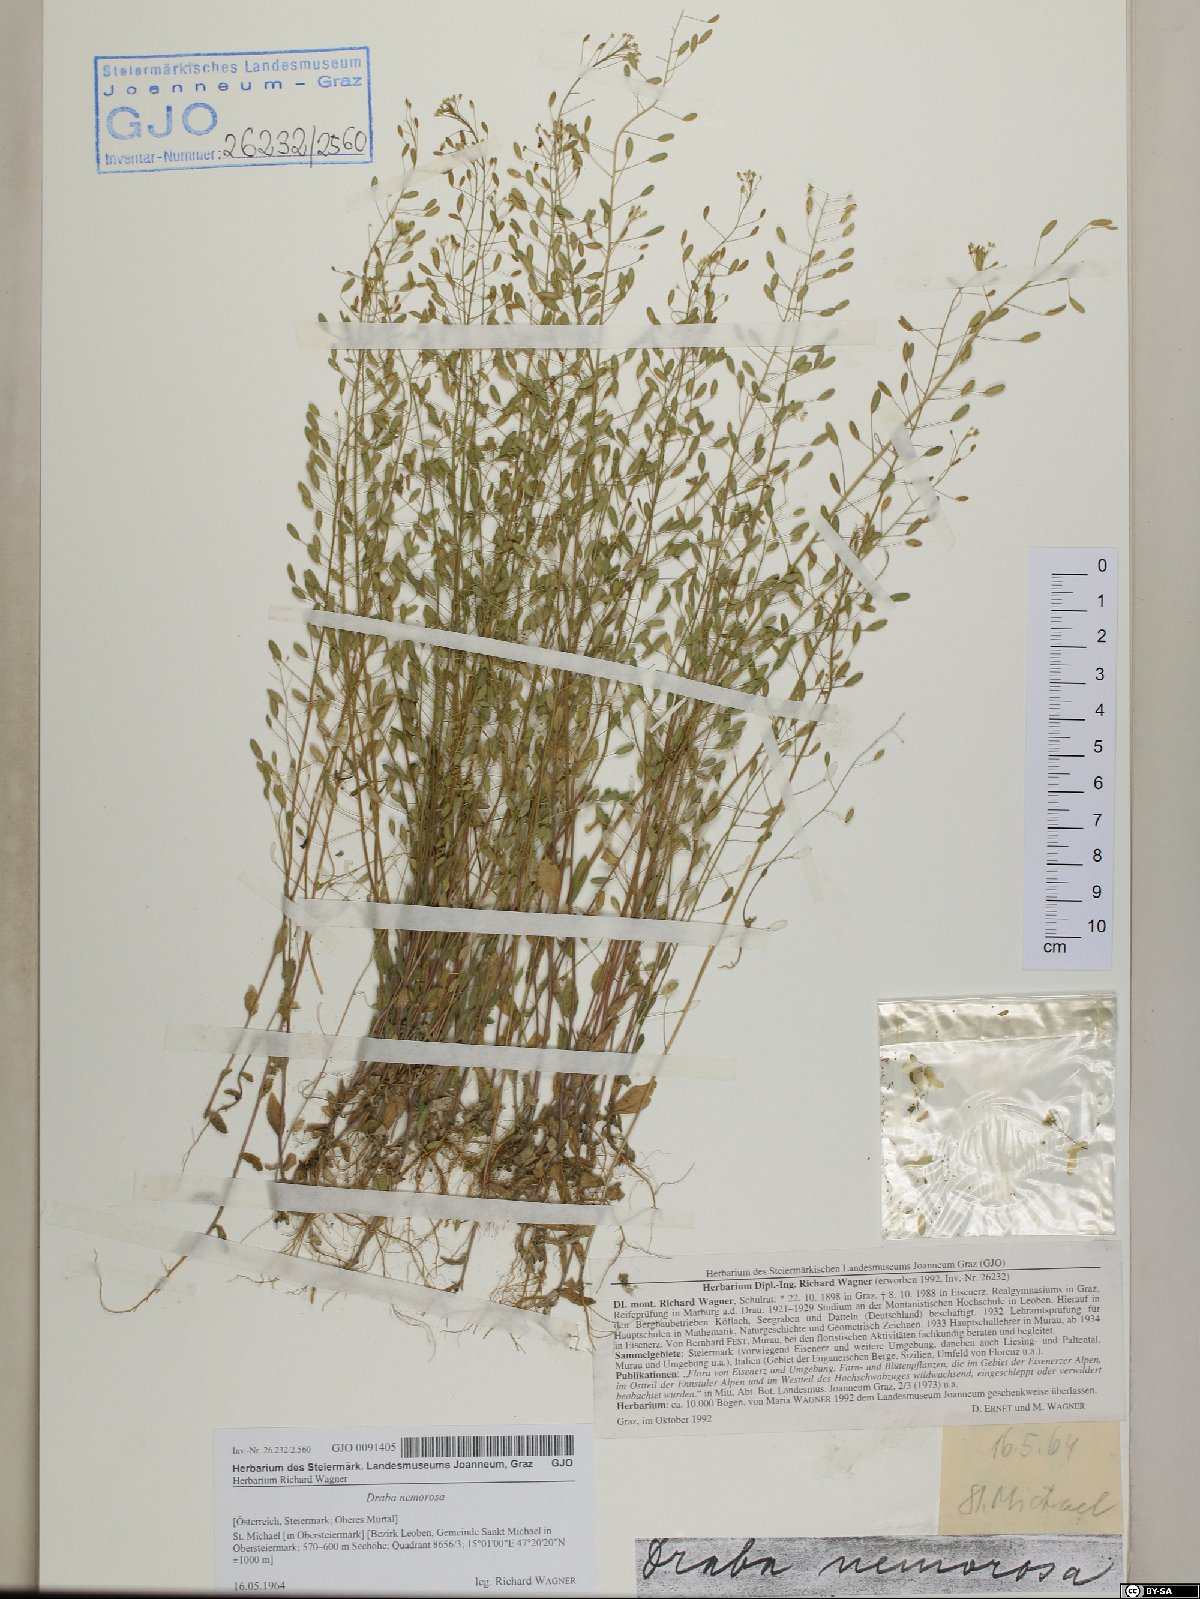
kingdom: Plantae
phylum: Tracheophyta
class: Magnoliopsida
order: Brassicales
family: Brassicaceae
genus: Draba
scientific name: Draba nemorosa
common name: Wood whitlow-grass
